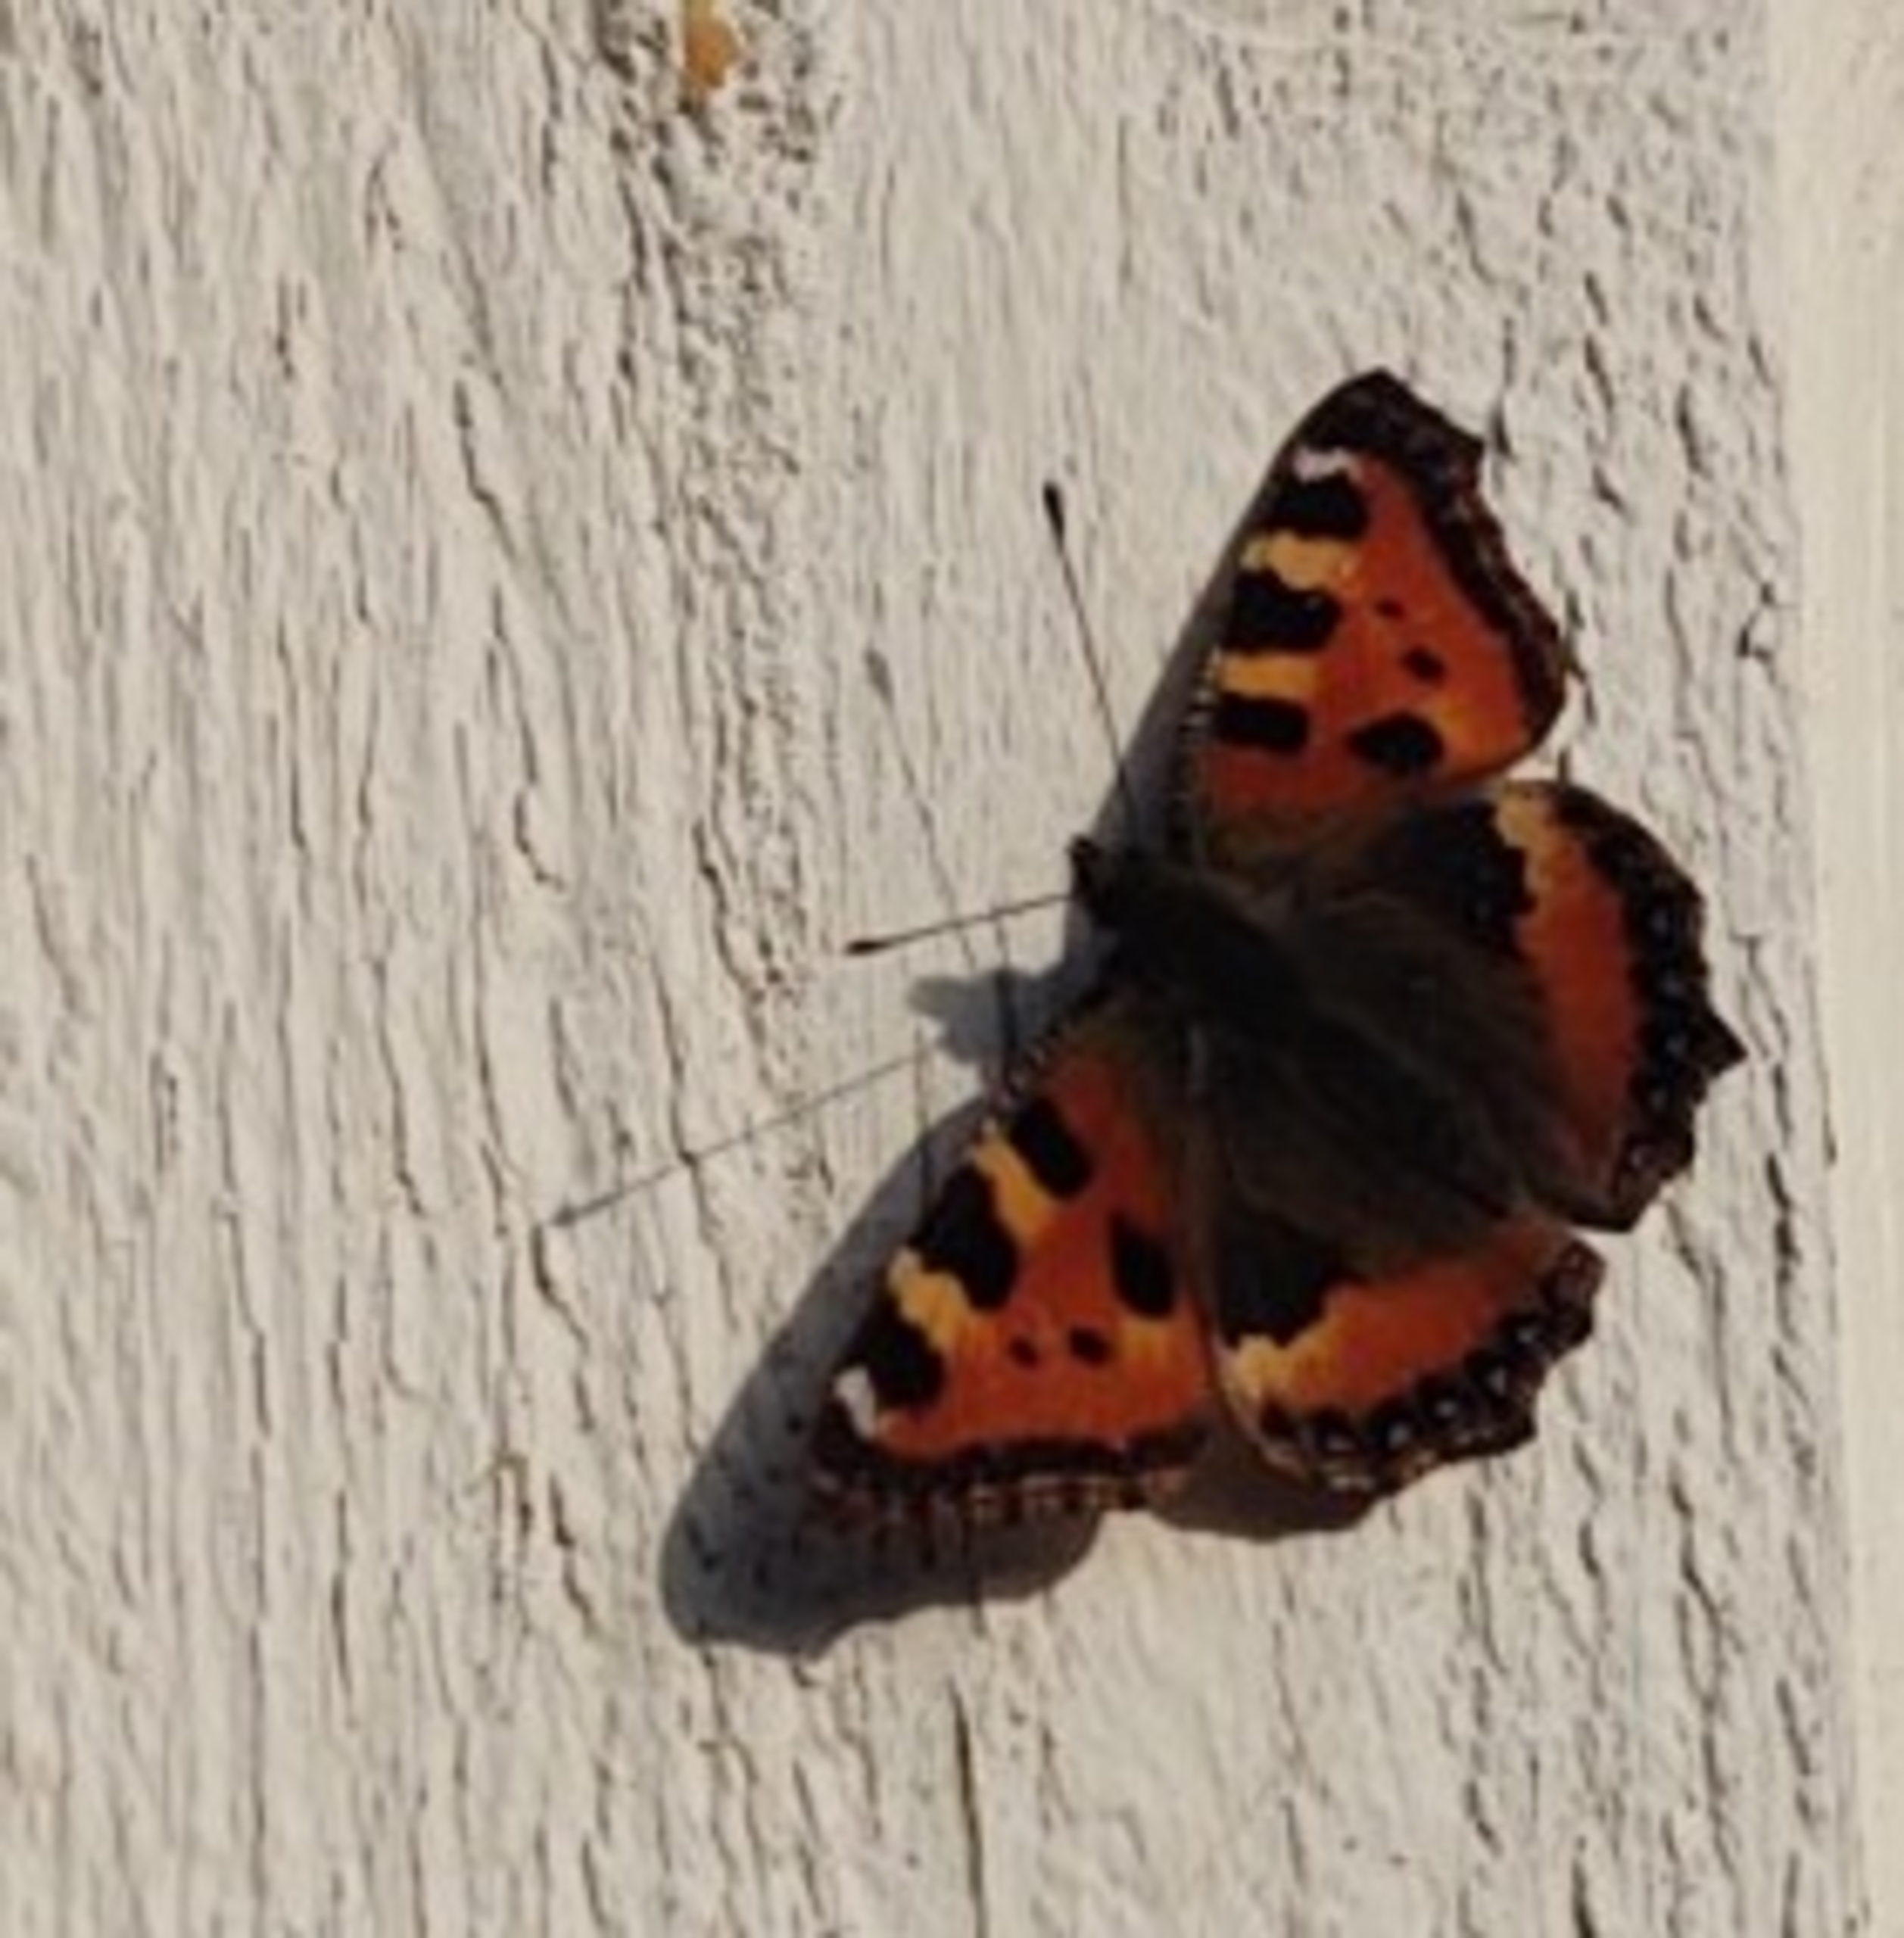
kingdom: Animalia
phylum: Arthropoda
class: Insecta
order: Lepidoptera
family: Nymphalidae
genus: Aglais
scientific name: Aglais urticae
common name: Nældens takvinge
